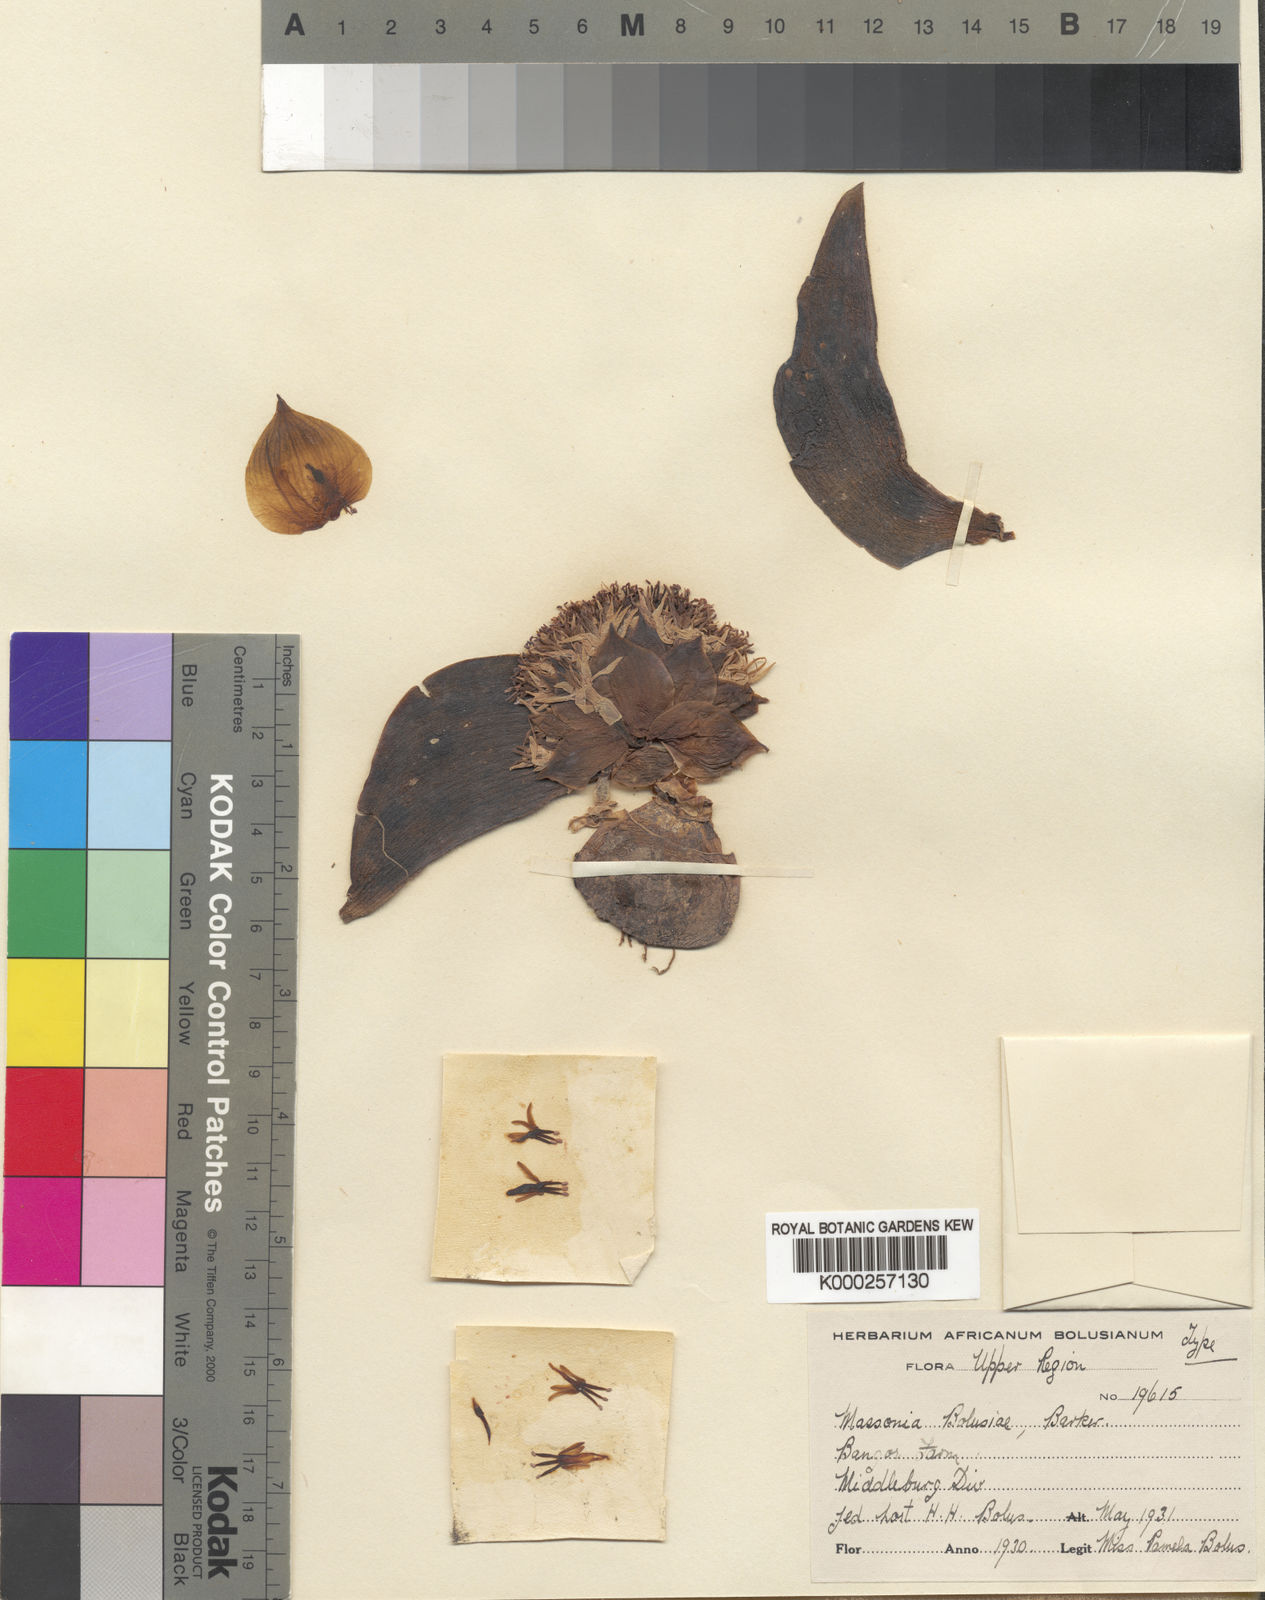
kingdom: Plantae
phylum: Tracheophyta
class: Liliopsida
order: Asparagales
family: Asparagaceae
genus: Massonia
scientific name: Massonia echinata
